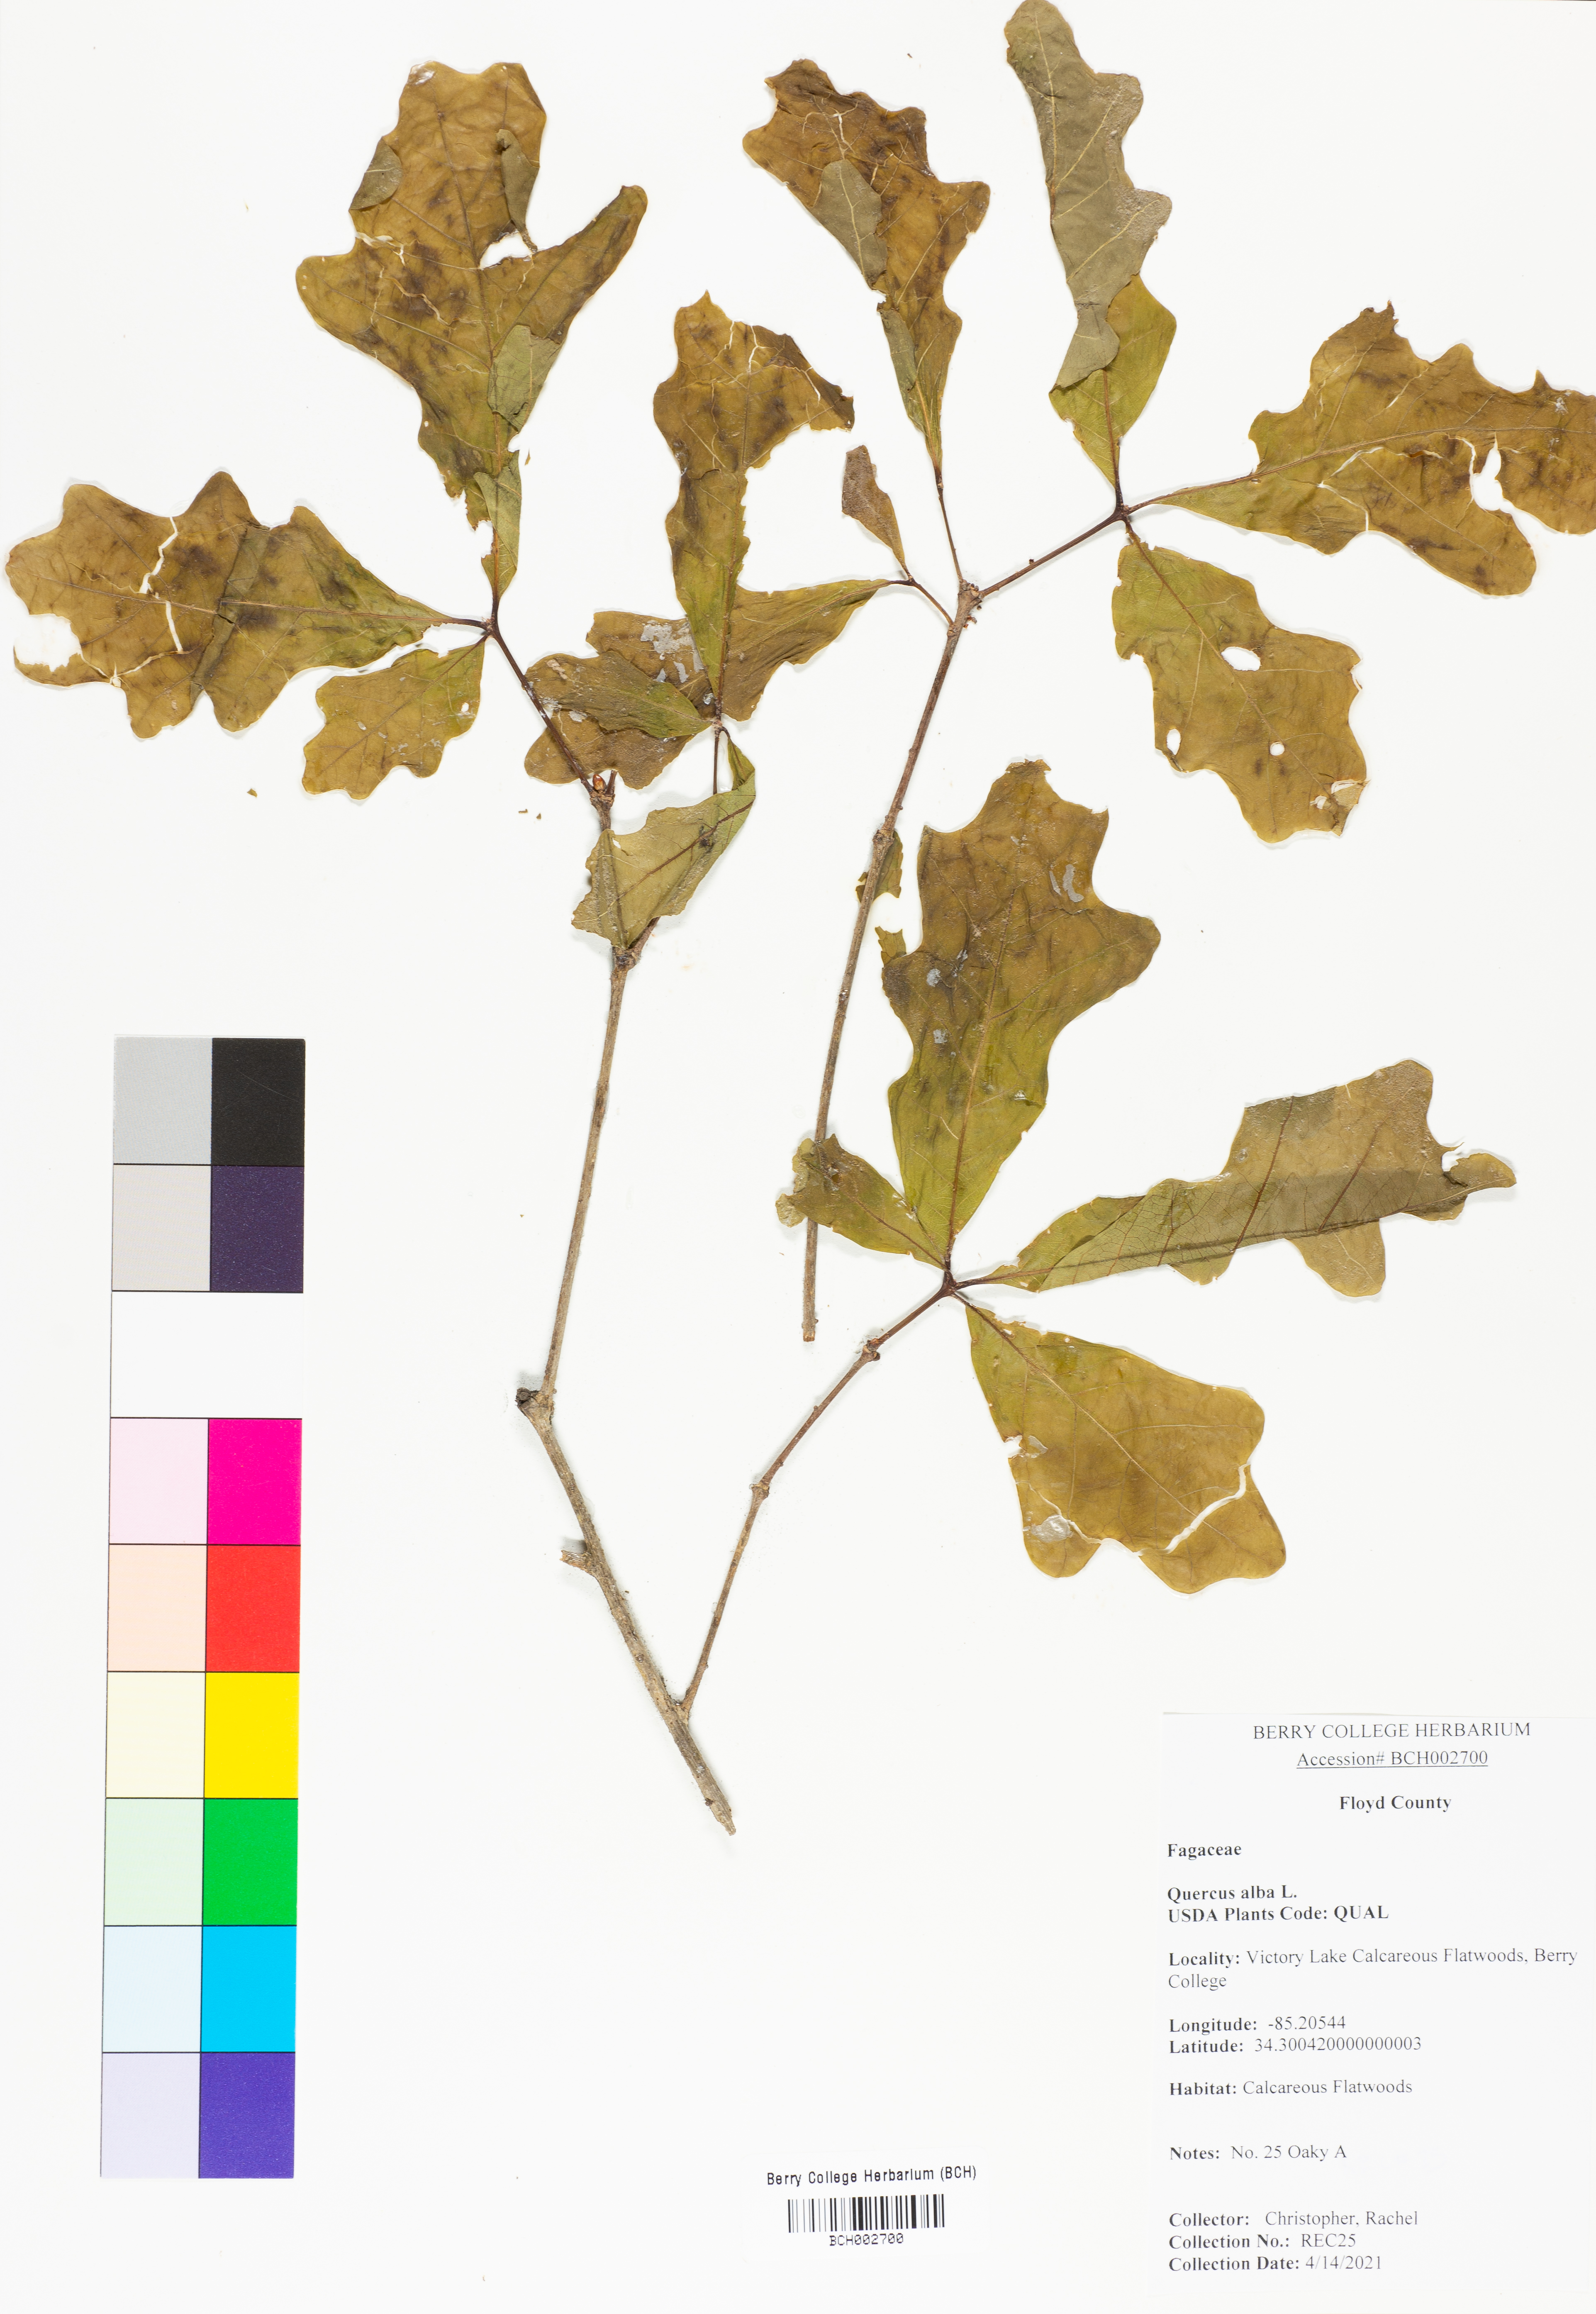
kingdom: Plantae
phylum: Tracheophyta
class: Magnoliopsida
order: Fagales
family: Fagaceae
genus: Quercus
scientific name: Quercus alba
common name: White oak
